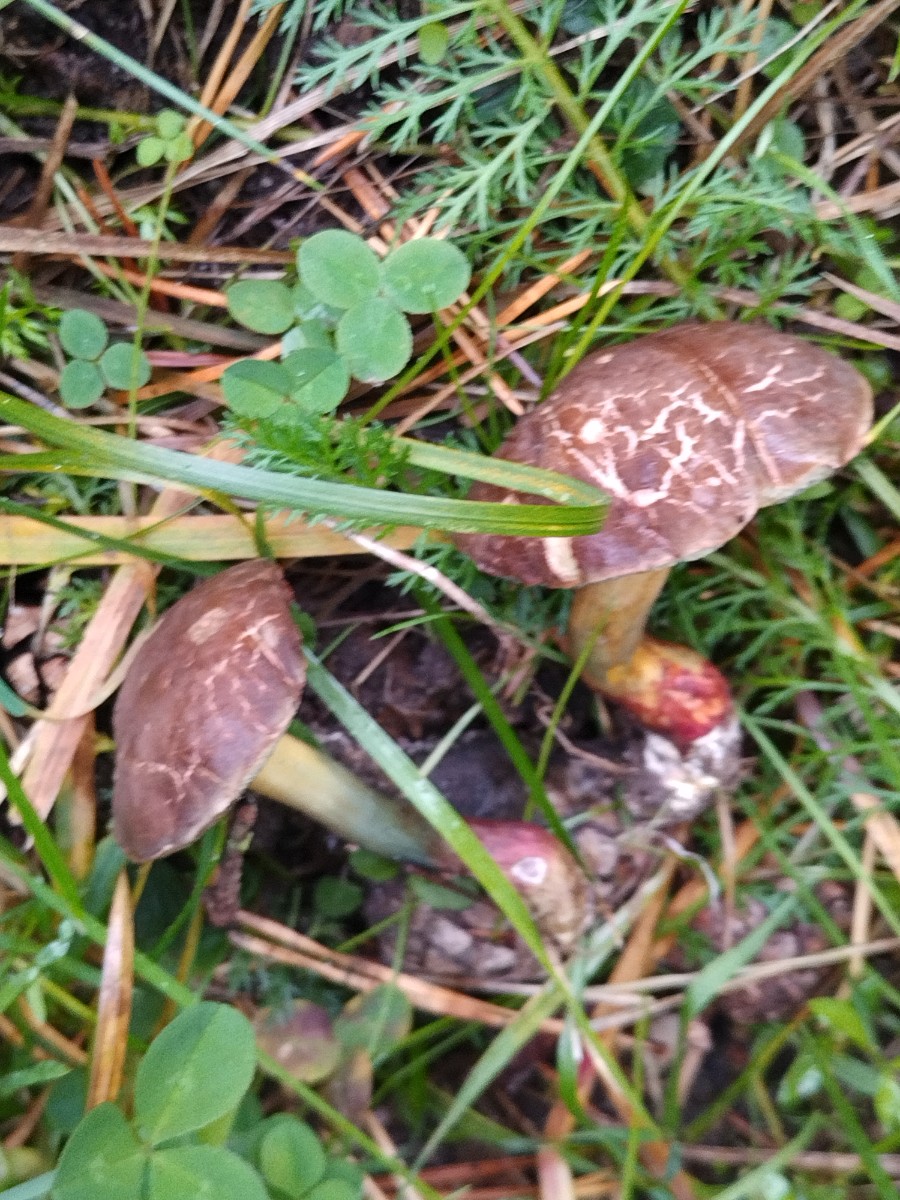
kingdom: Fungi
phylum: Basidiomycota
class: Agaricomycetes
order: Boletales
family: Boletaceae
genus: Xerocomellus
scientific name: Xerocomellus porosporus
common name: hvidsprukken rørhat
